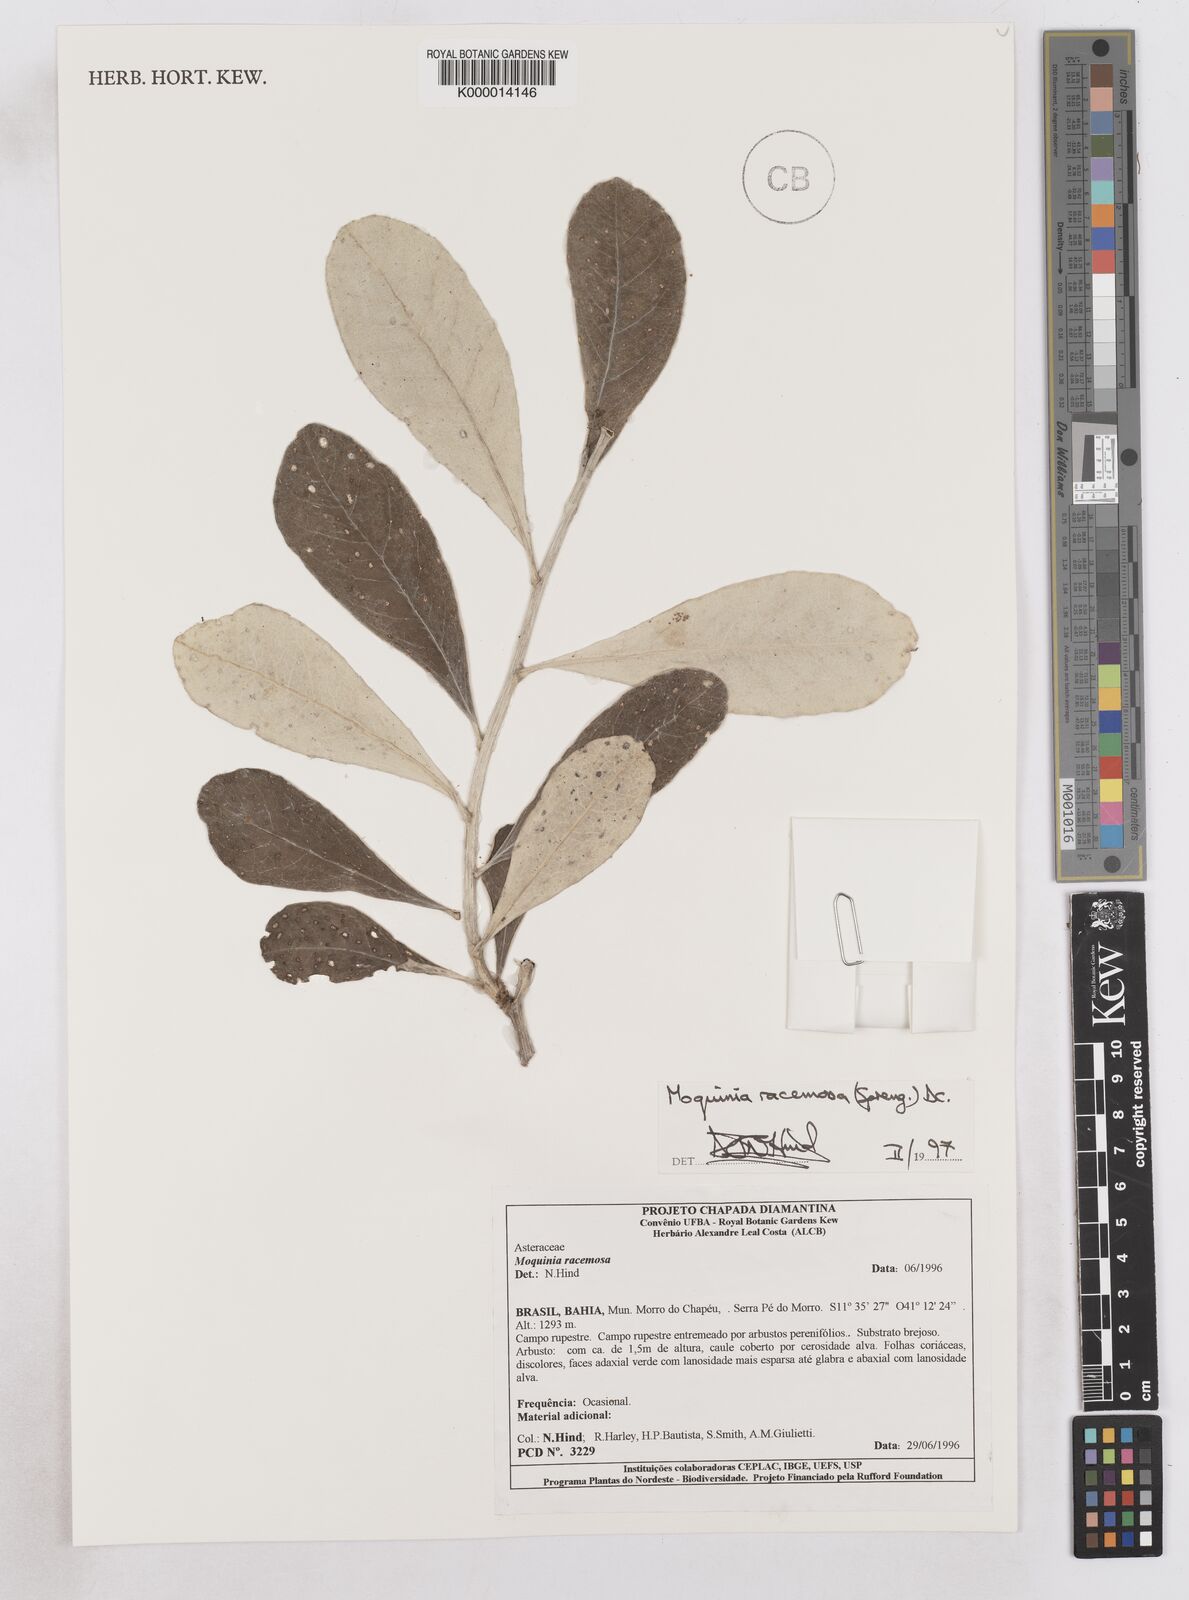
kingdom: Plantae
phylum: Tracheophyta
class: Magnoliopsida
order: Asterales
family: Asteraceae
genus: Moquinia
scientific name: Moquinia racemosa
